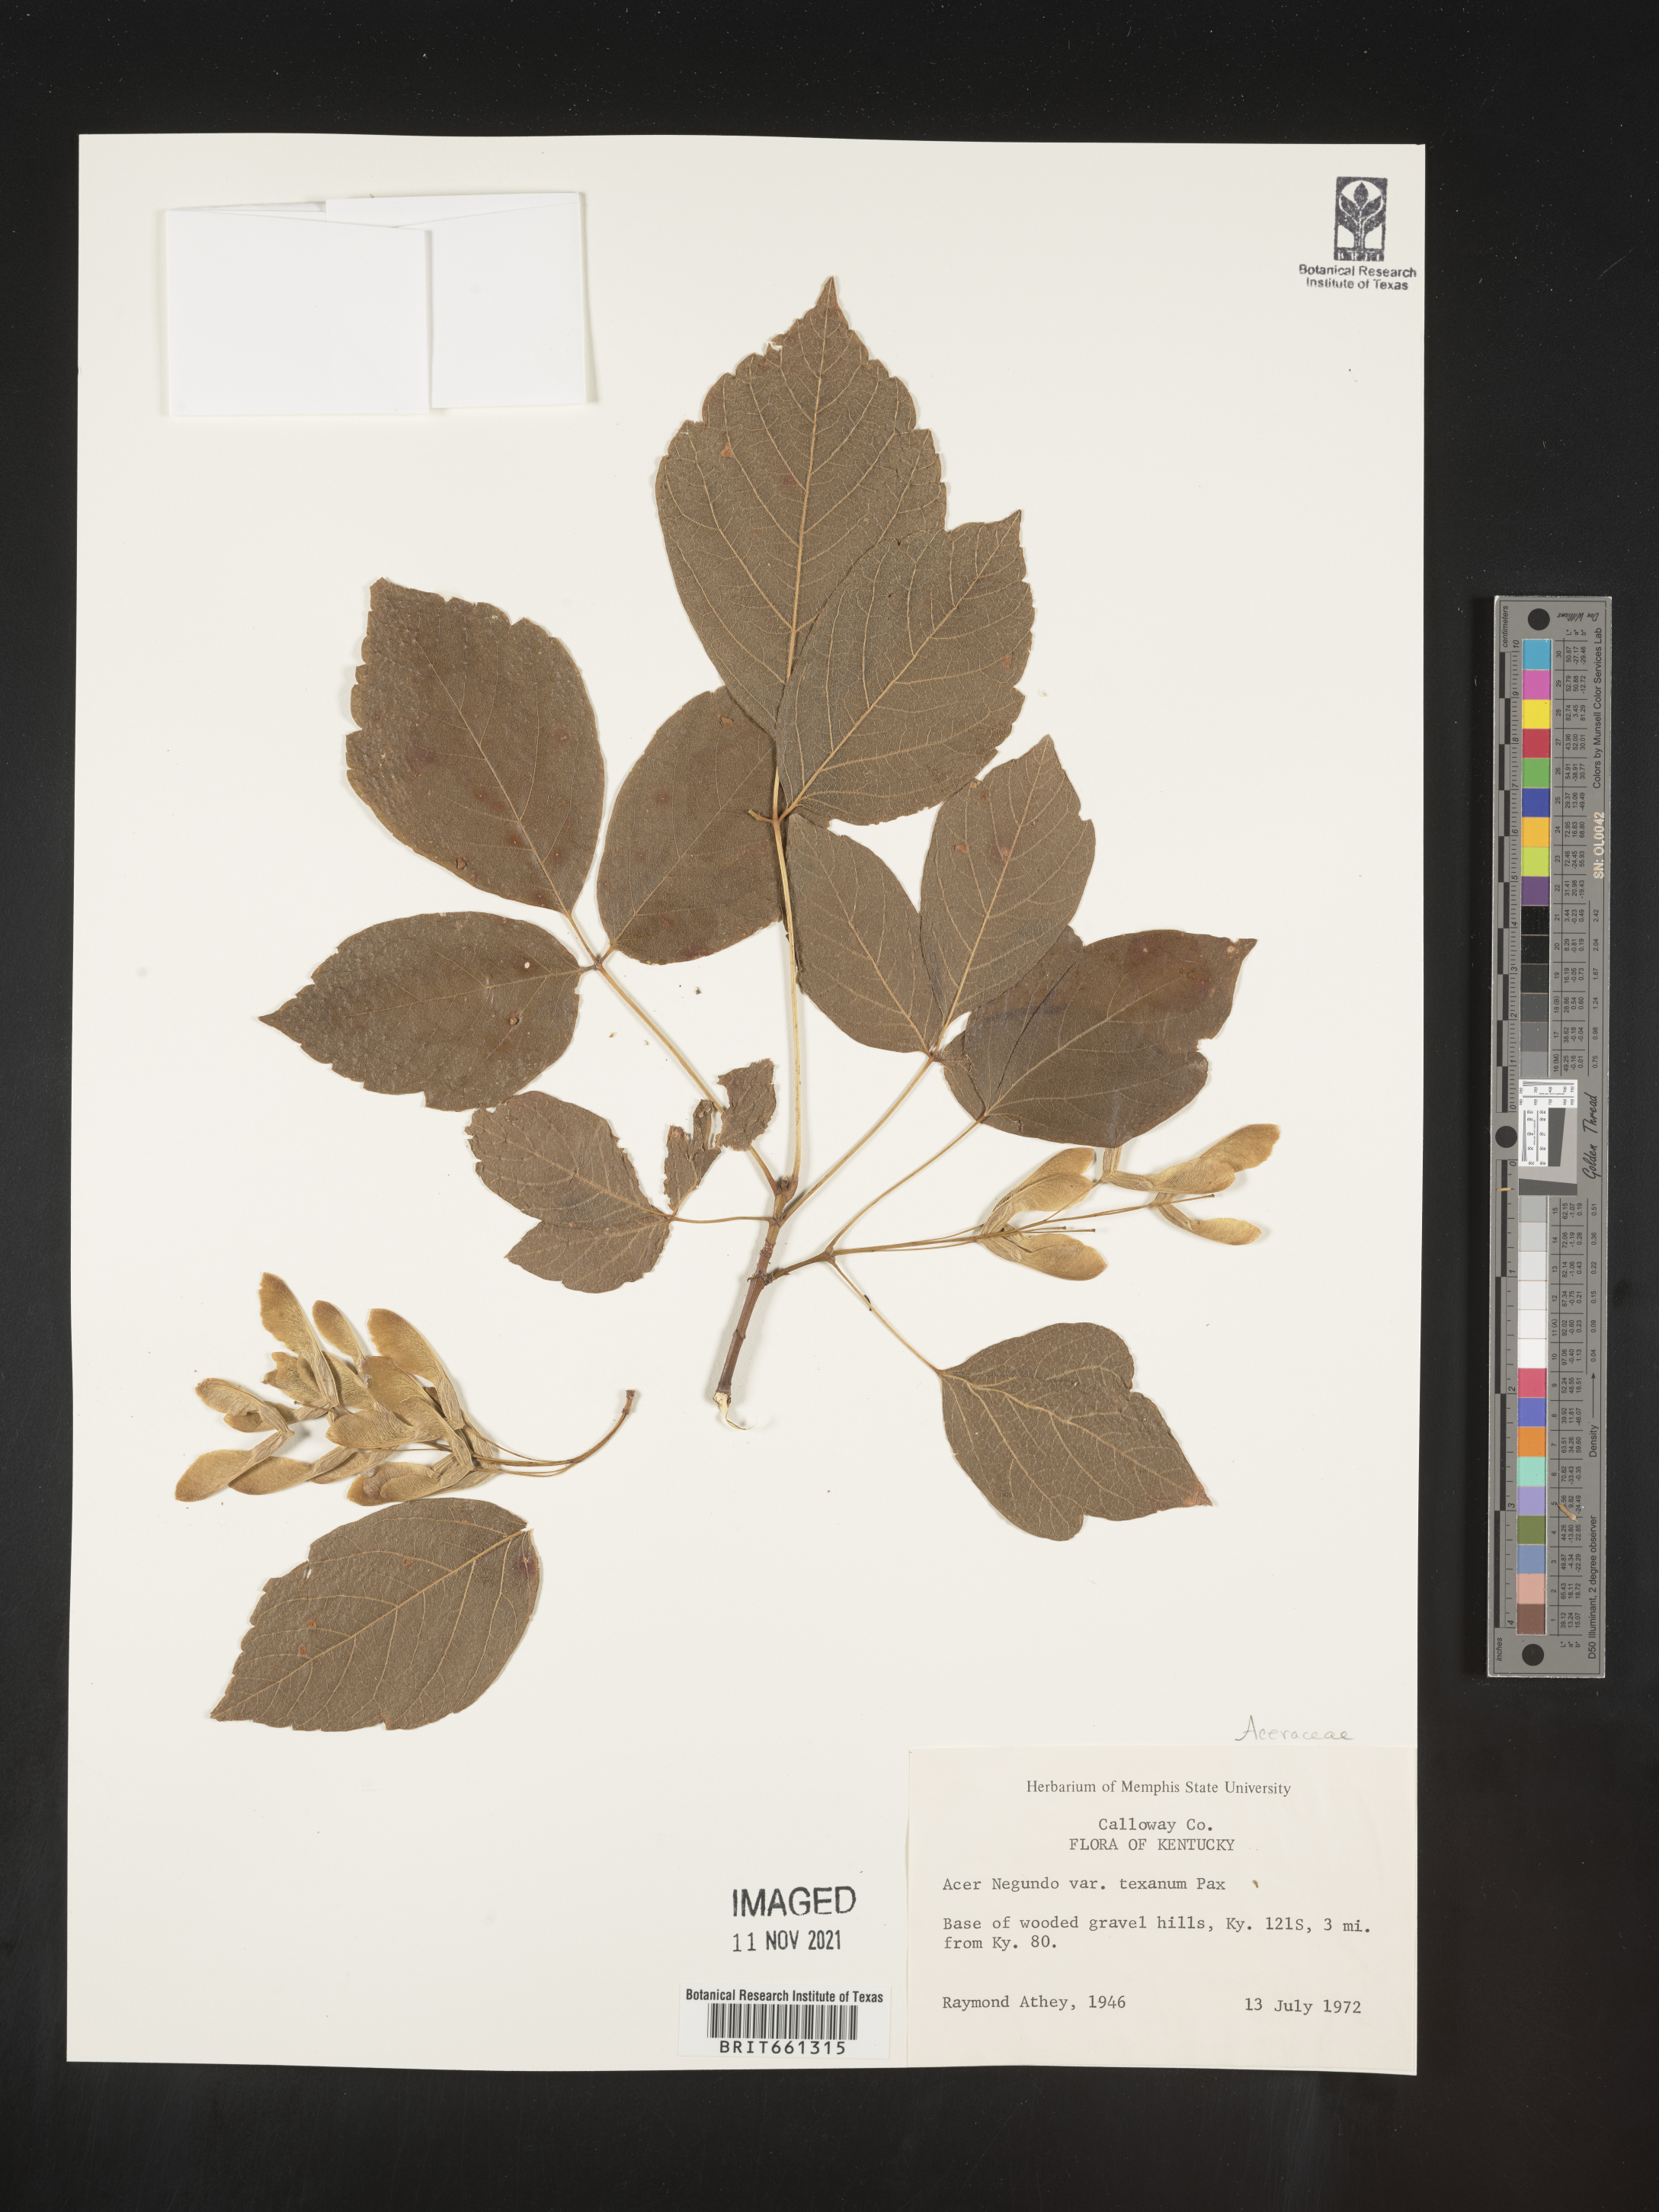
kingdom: Plantae
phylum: Tracheophyta
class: Magnoliopsida
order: Sapindales
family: Sapindaceae
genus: Acer
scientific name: Acer negundo
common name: Ashleaf maple
